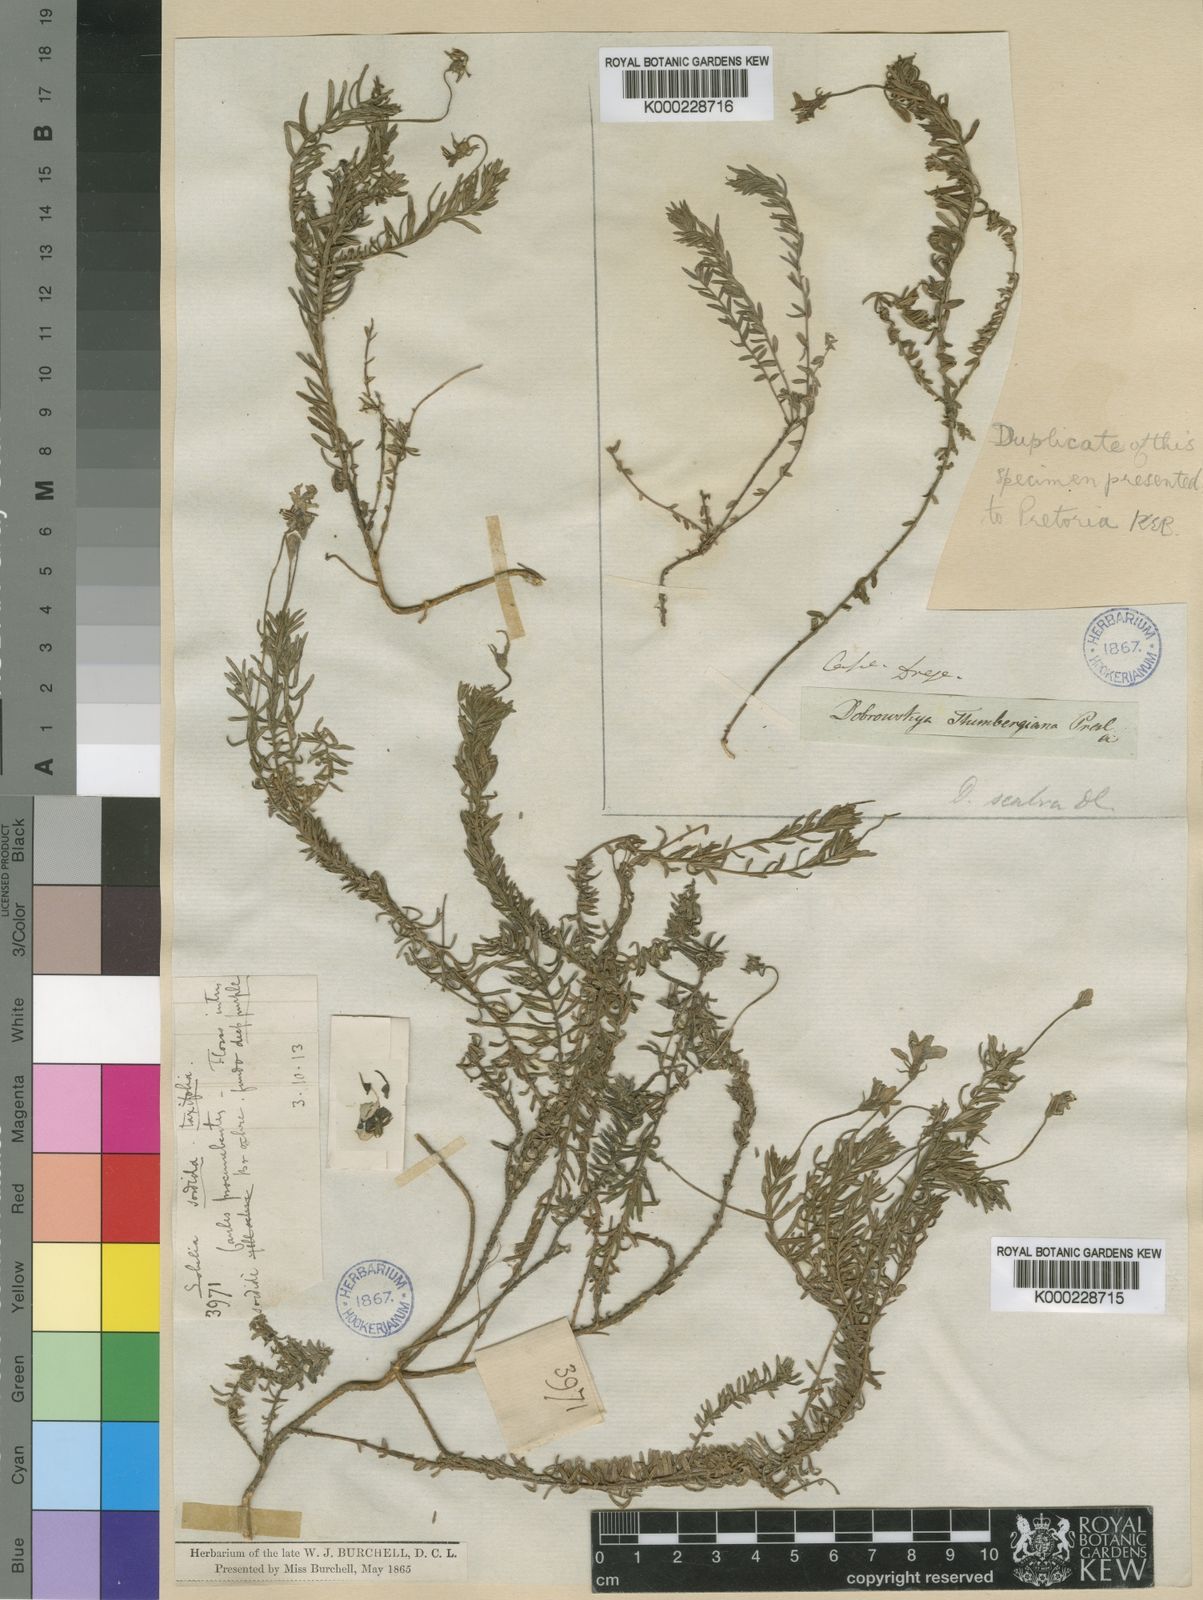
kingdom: Plantae
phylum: Tracheophyta
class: Magnoliopsida
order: Asterales
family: Campanulaceae
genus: Monopsis
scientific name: Monopsis scabra
